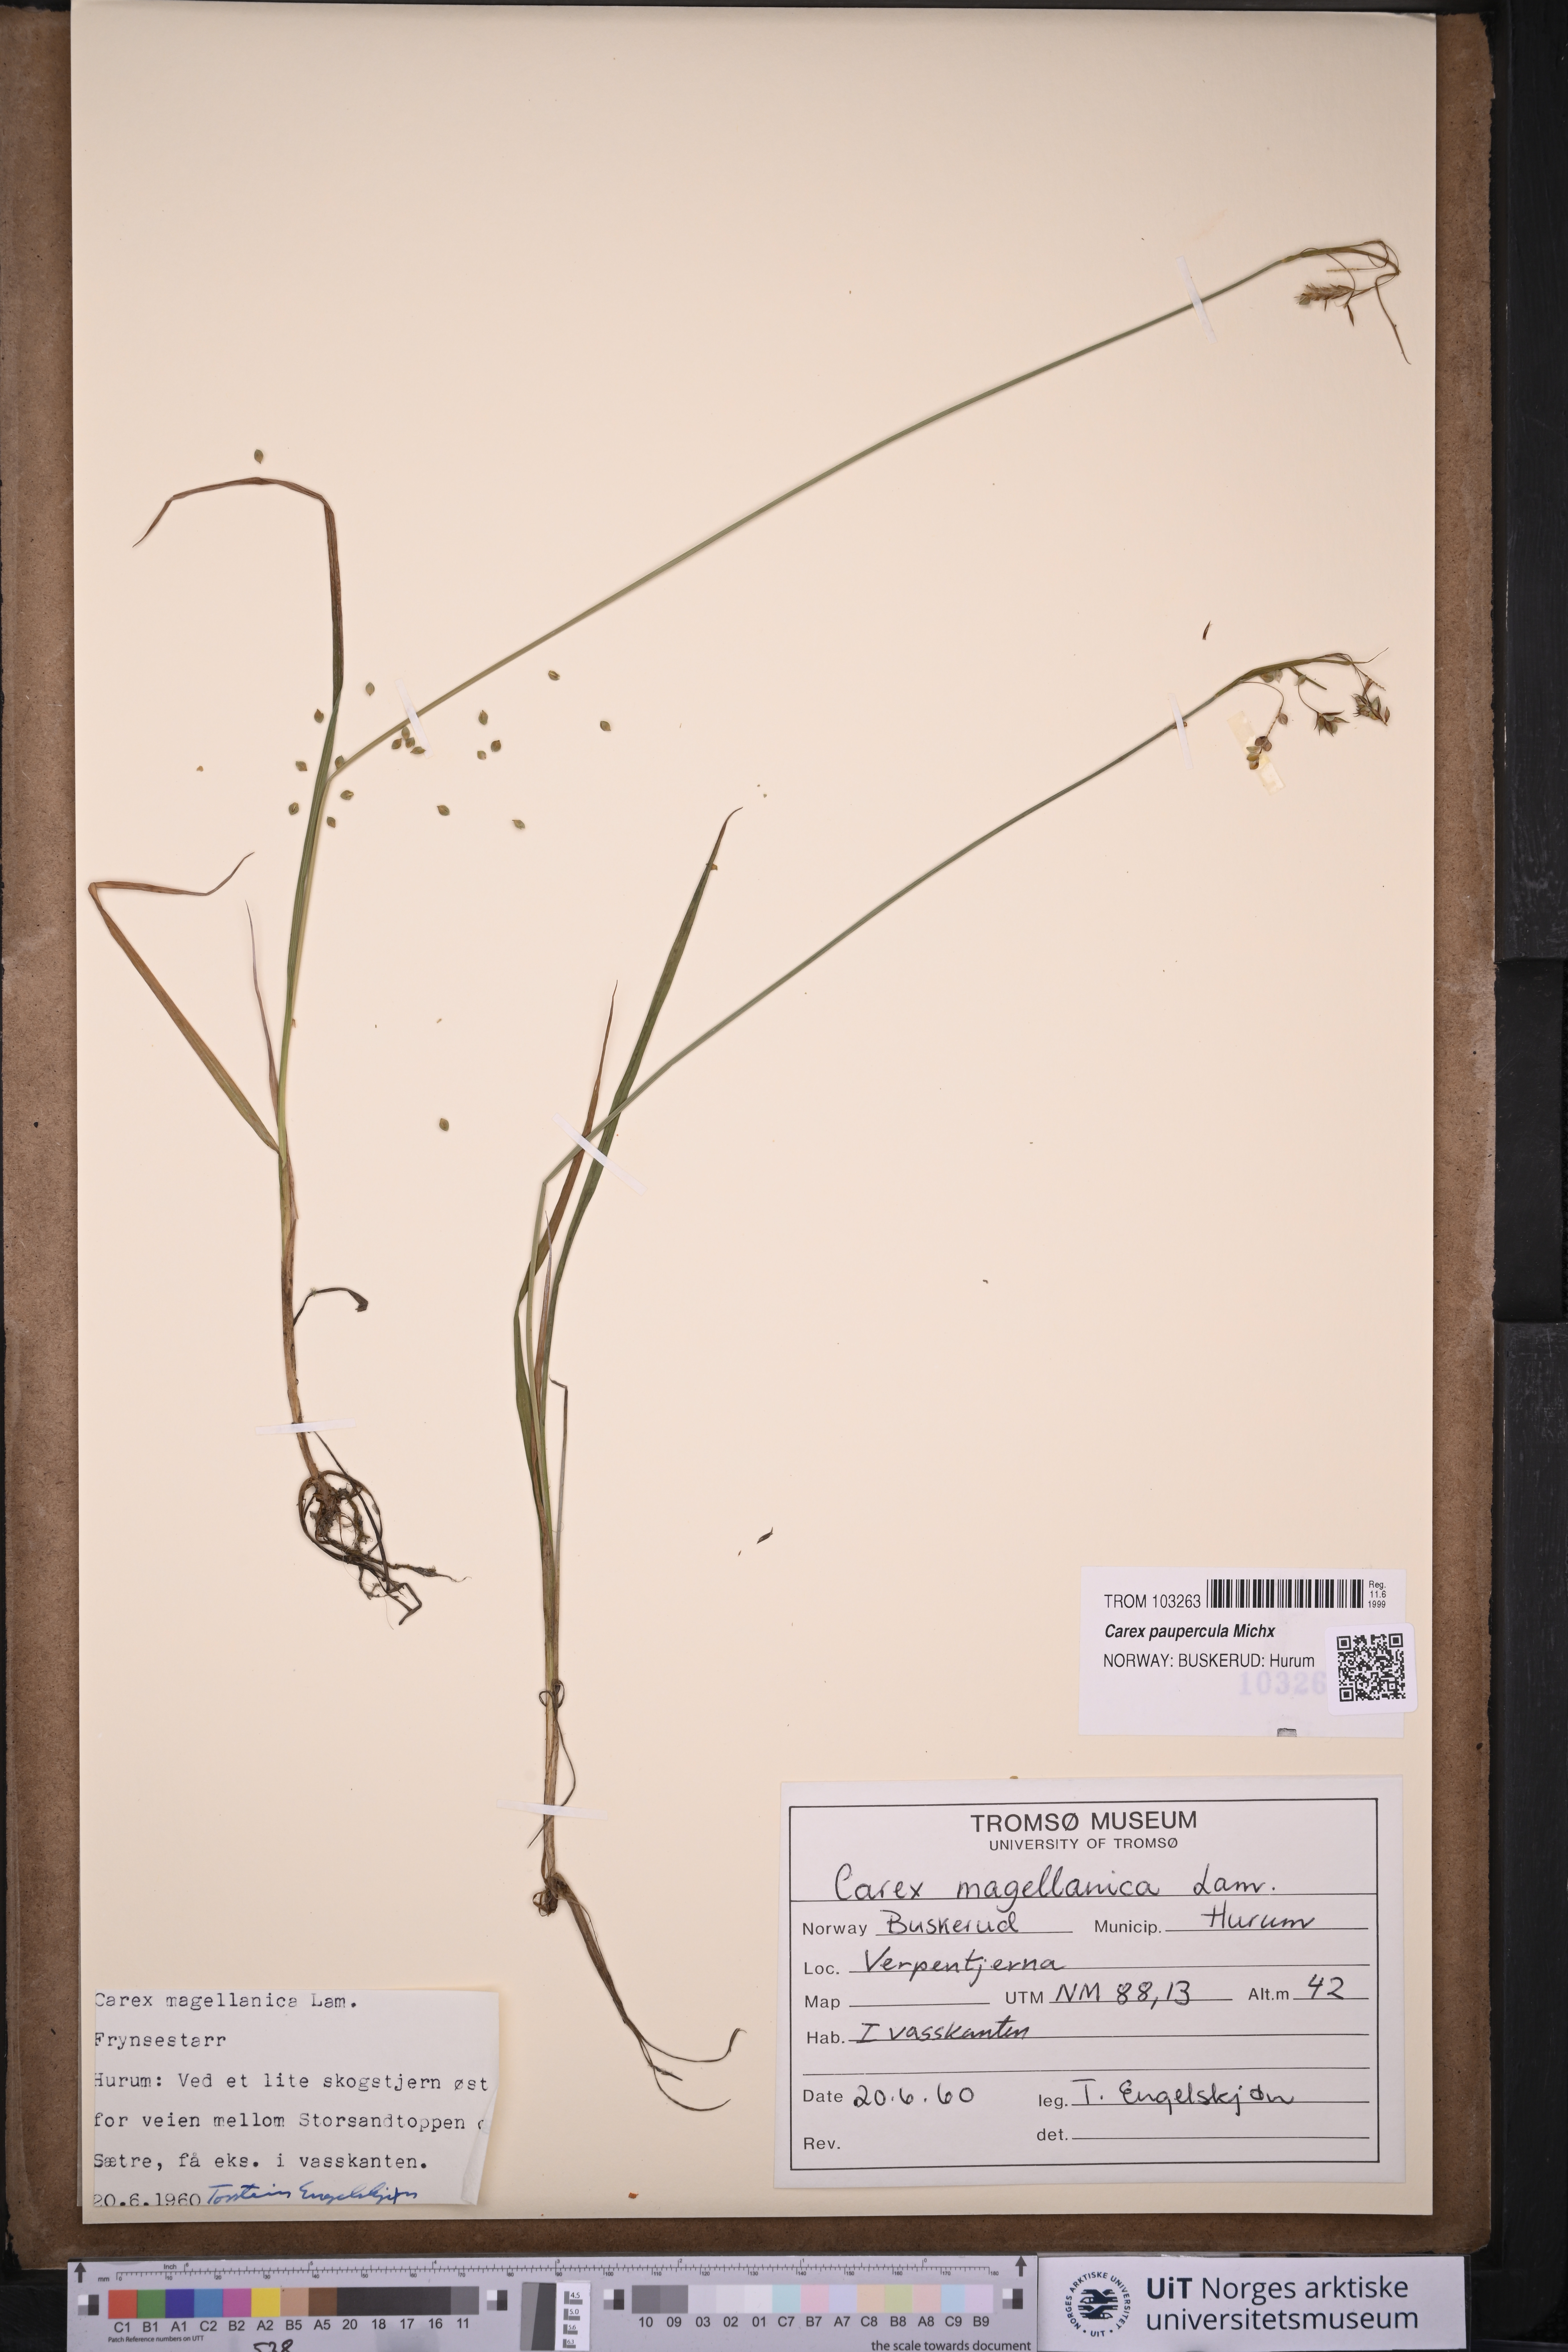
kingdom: Plantae
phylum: Tracheophyta
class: Liliopsida
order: Poales
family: Cyperaceae
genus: Carex
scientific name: Carex magellanica
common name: Bog sedge
